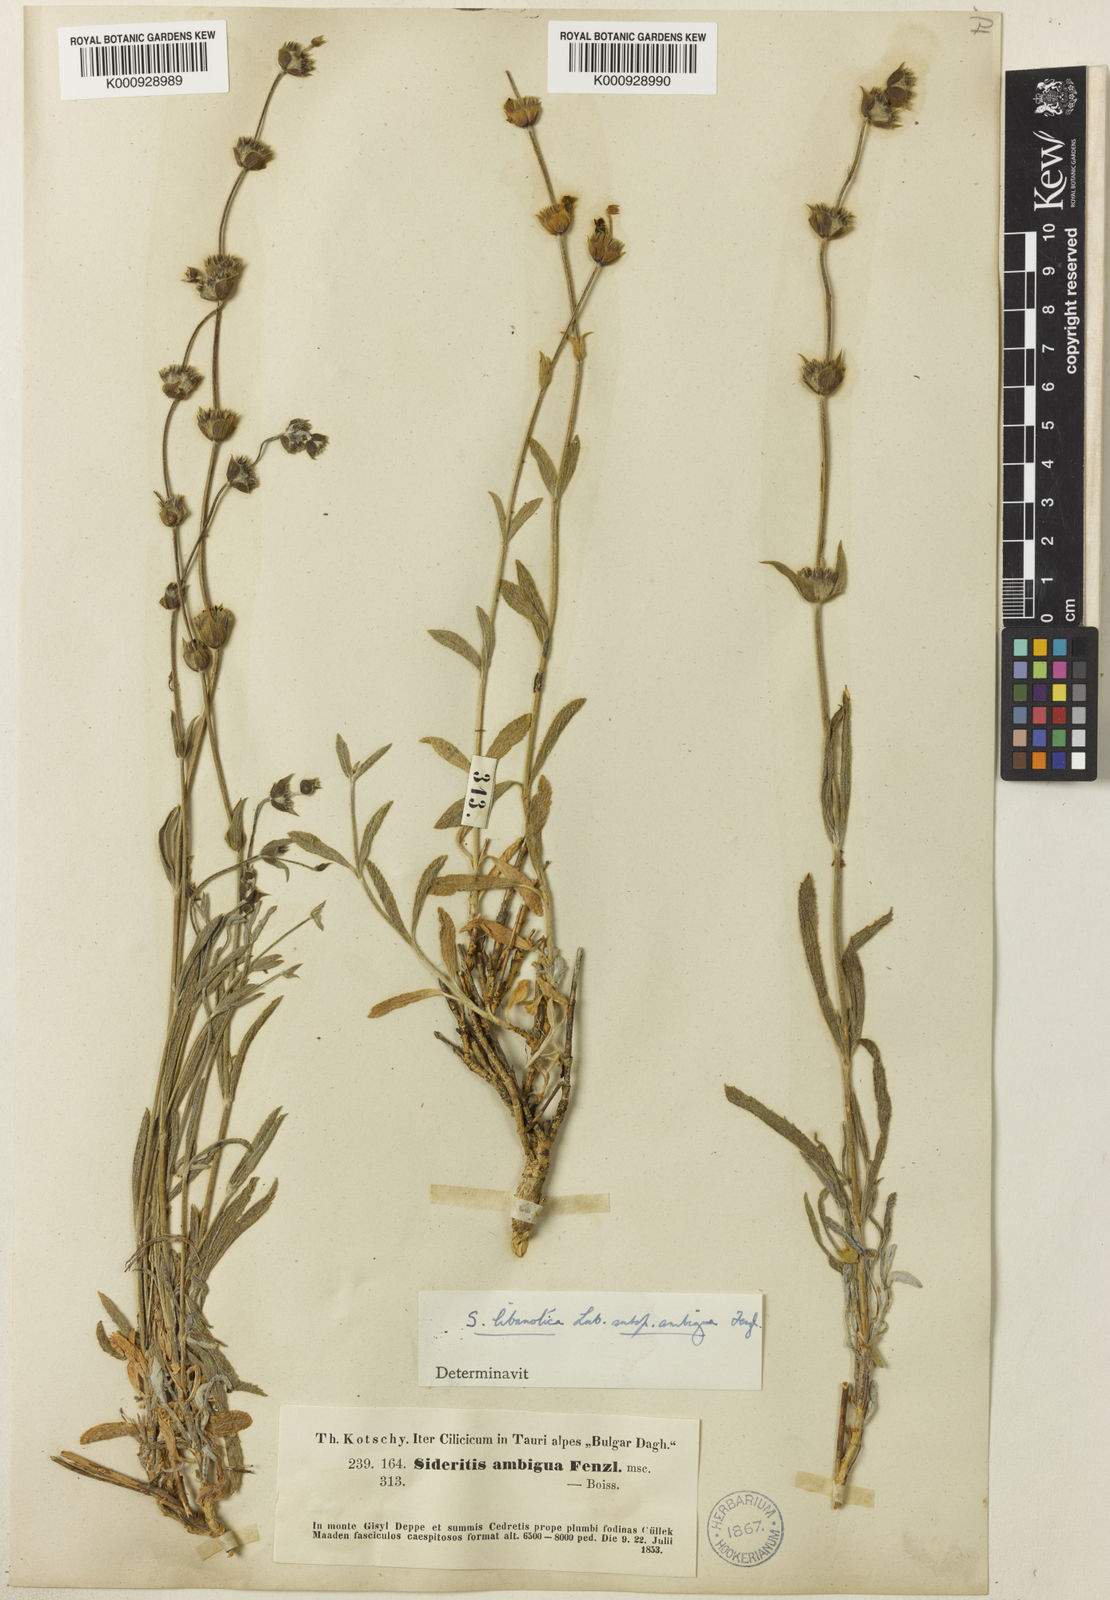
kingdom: Plantae
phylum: Tracheophyta
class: Magnoliopsida
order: Lamiales
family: Lamiaceae
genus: Sideritis
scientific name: Sideritis libanotica
